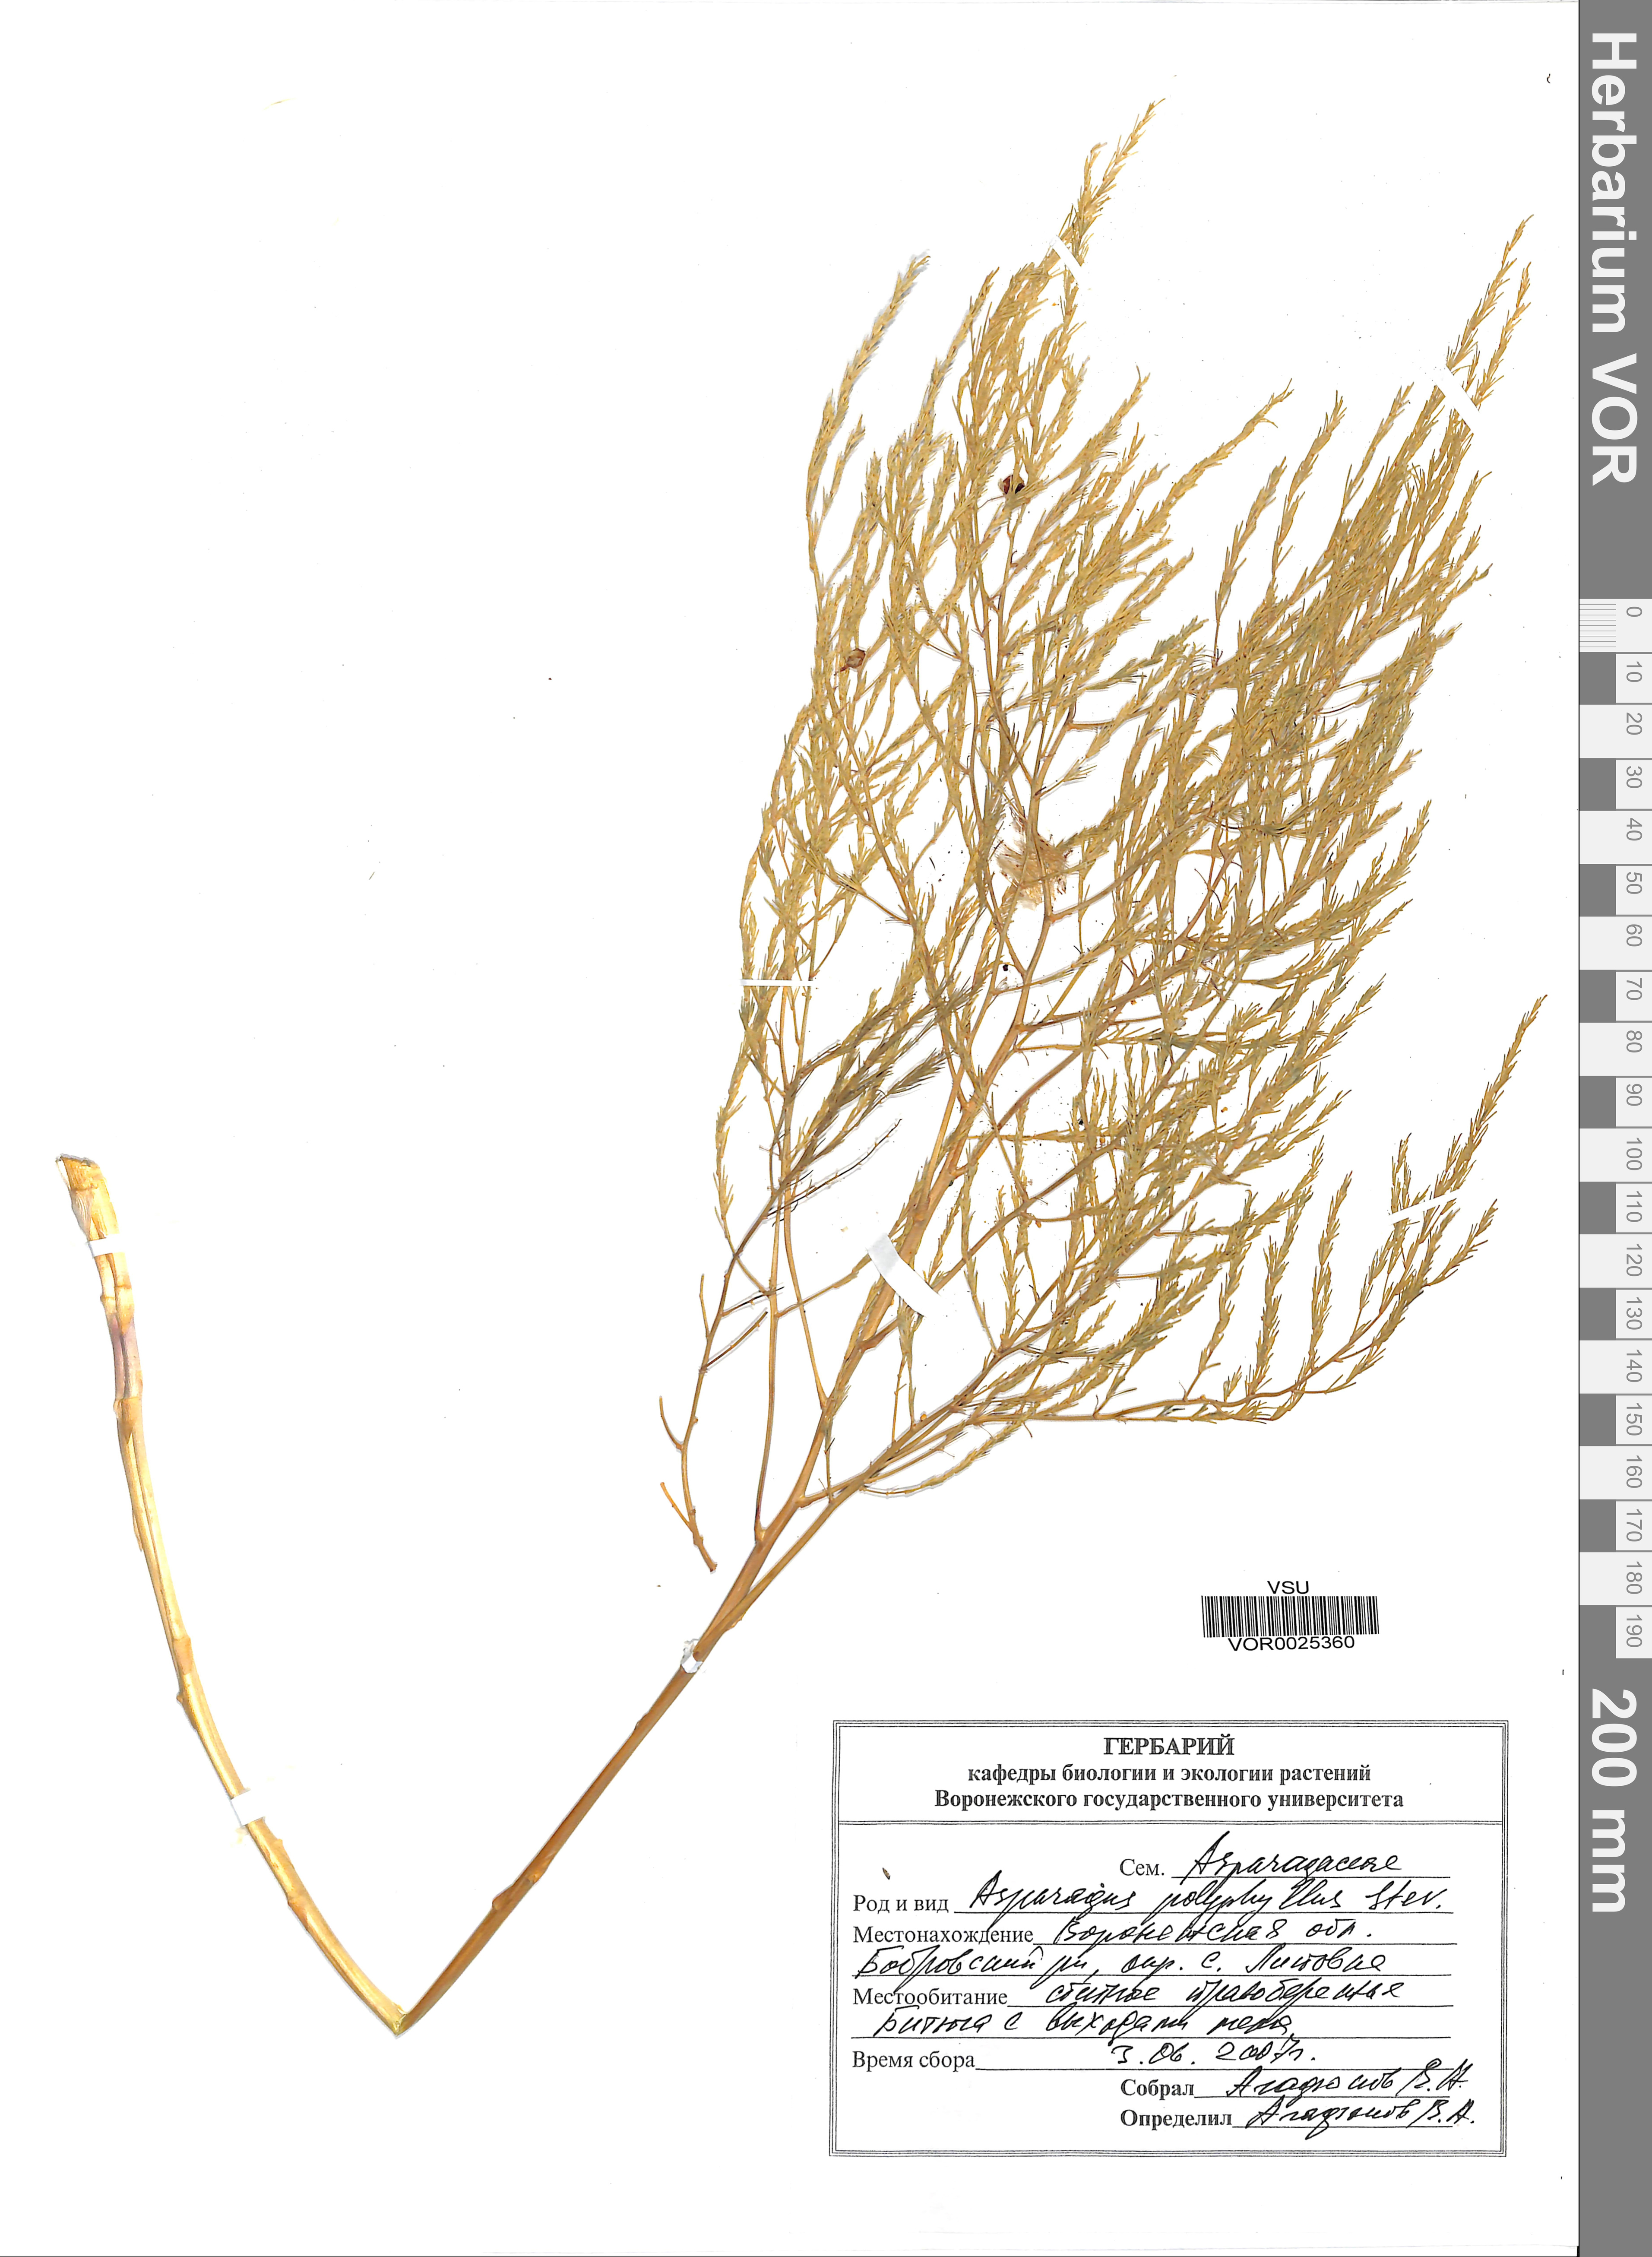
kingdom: Plantae
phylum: Tracheophyta
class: Liliopsida
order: Asparagales
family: Asparagaceae
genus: Asparagus
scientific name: Asparagus officinalis
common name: Garden asparagus
